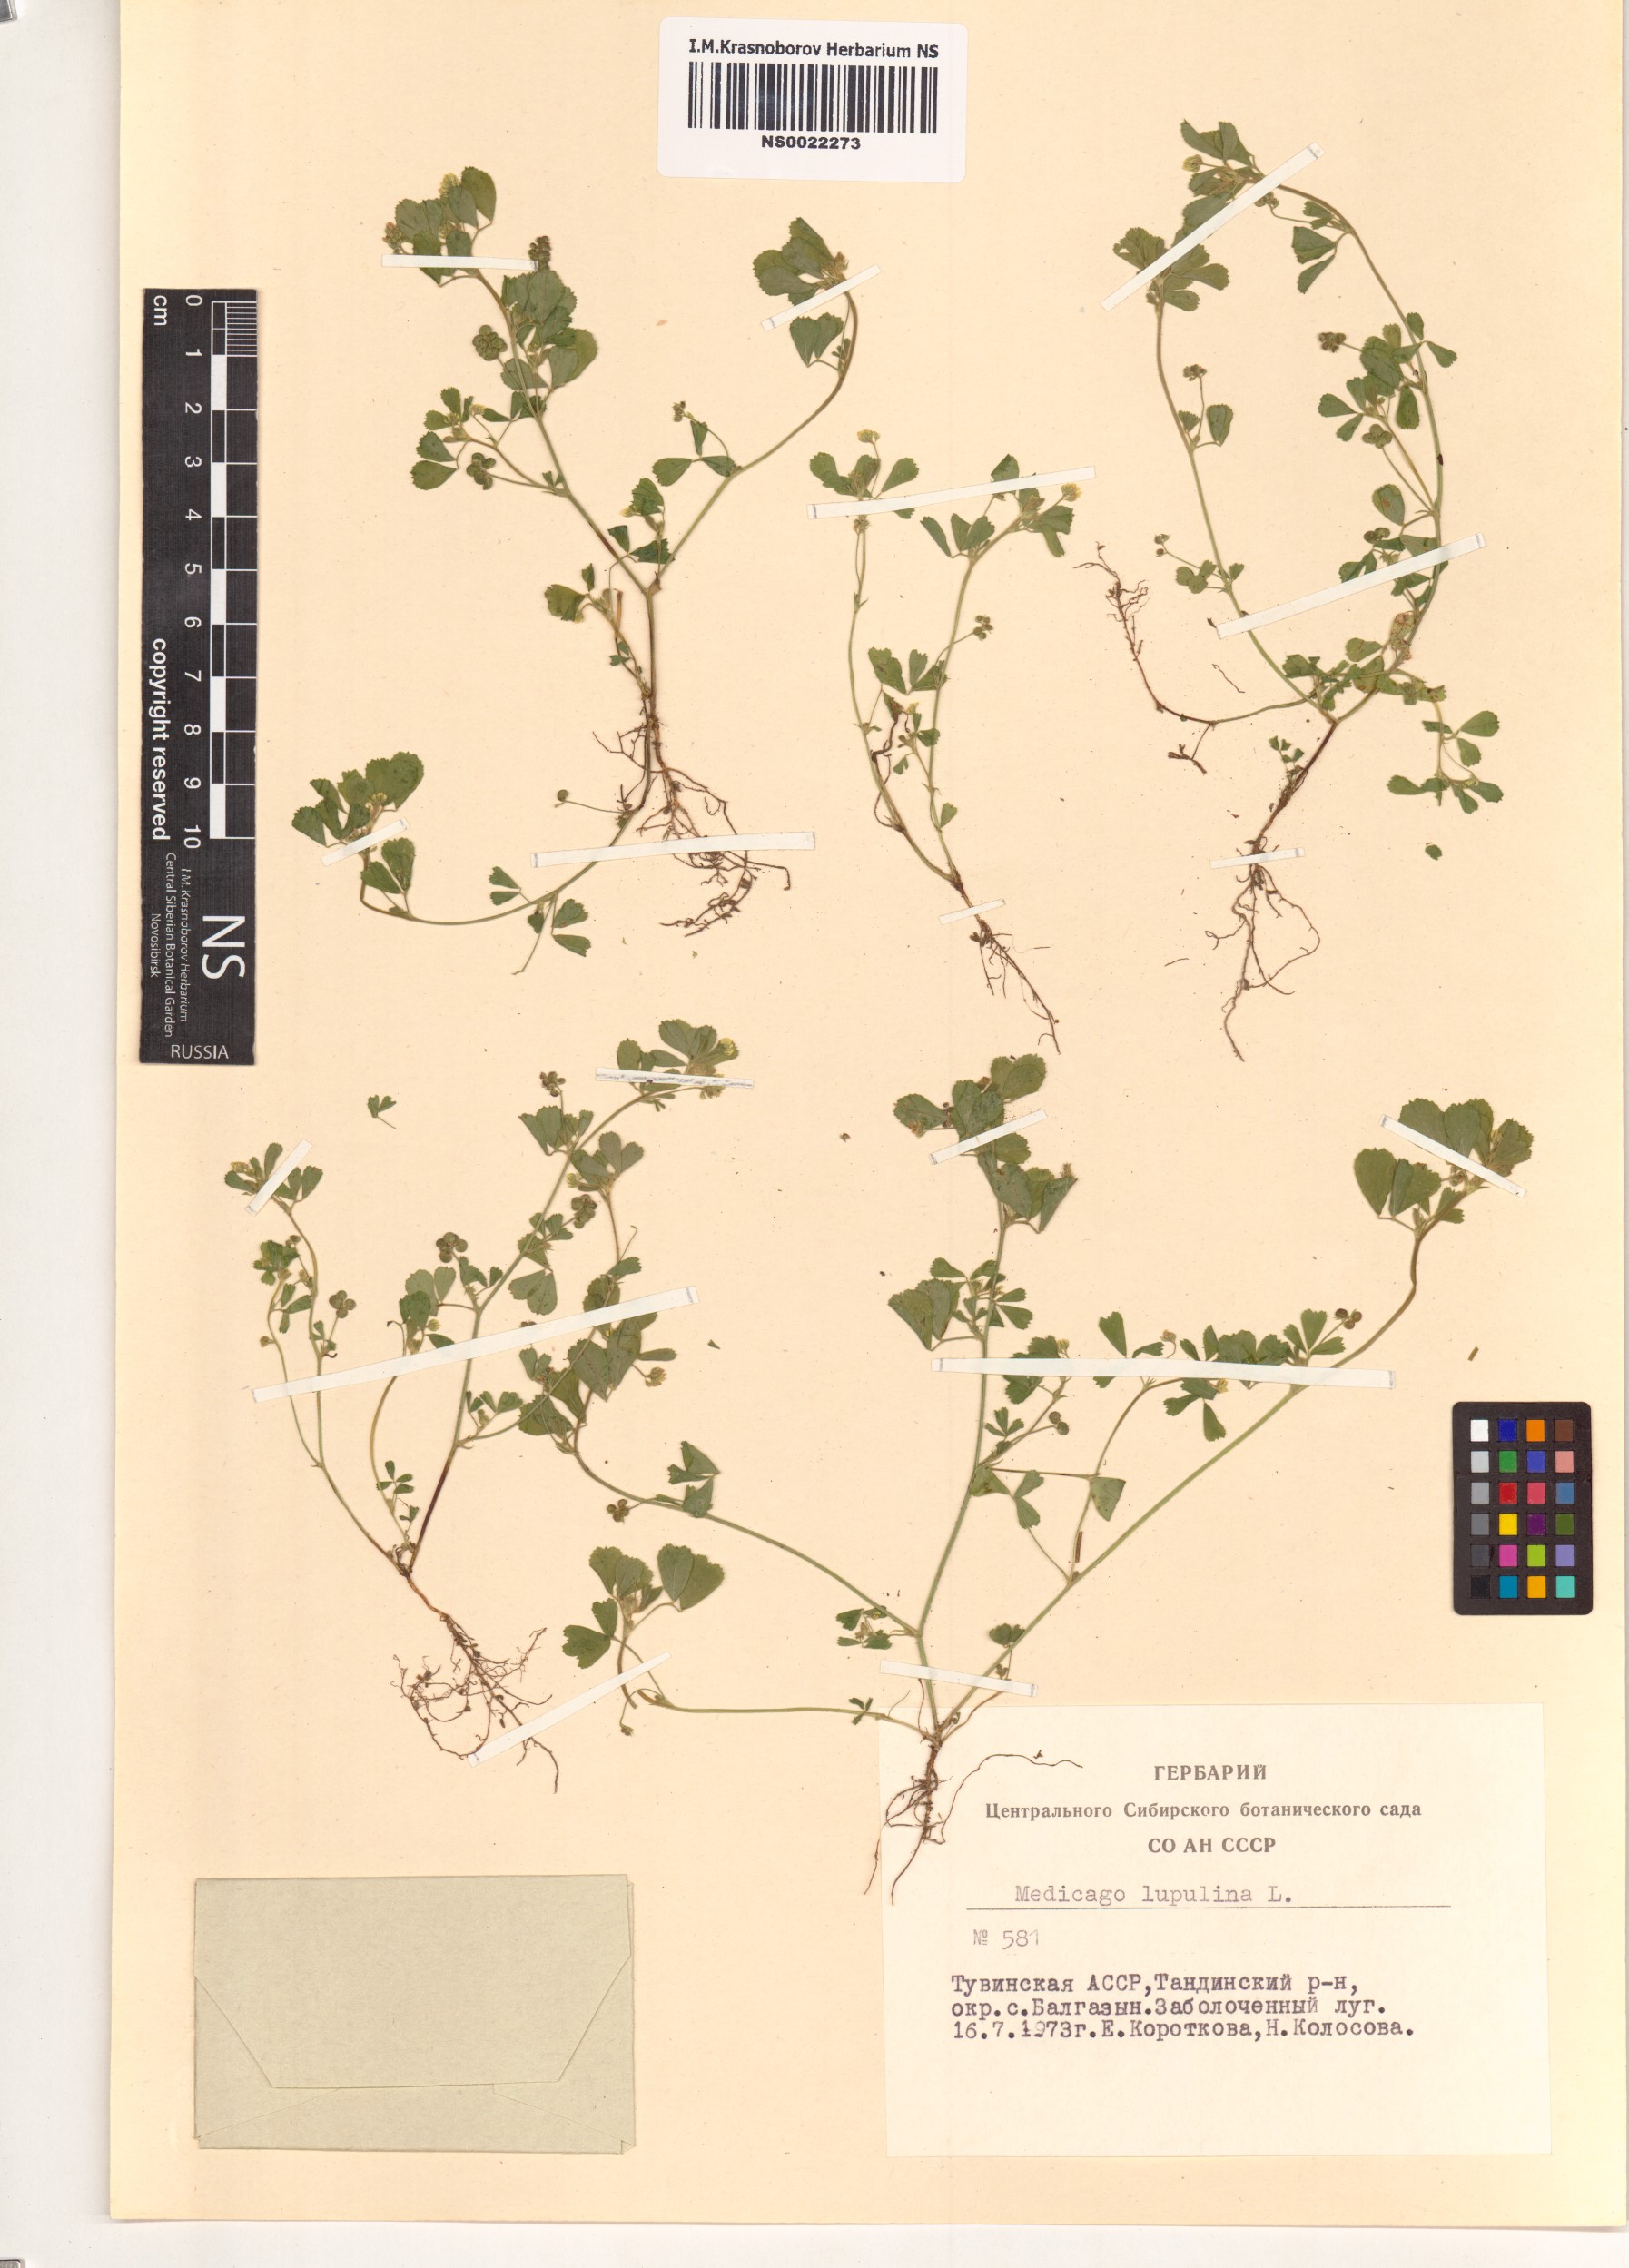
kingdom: Plantae
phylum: Tracheophyta
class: Magnoliopsida
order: Fabales
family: Fabaceae
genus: Medicago
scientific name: Medicago lupulina
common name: Black medick
